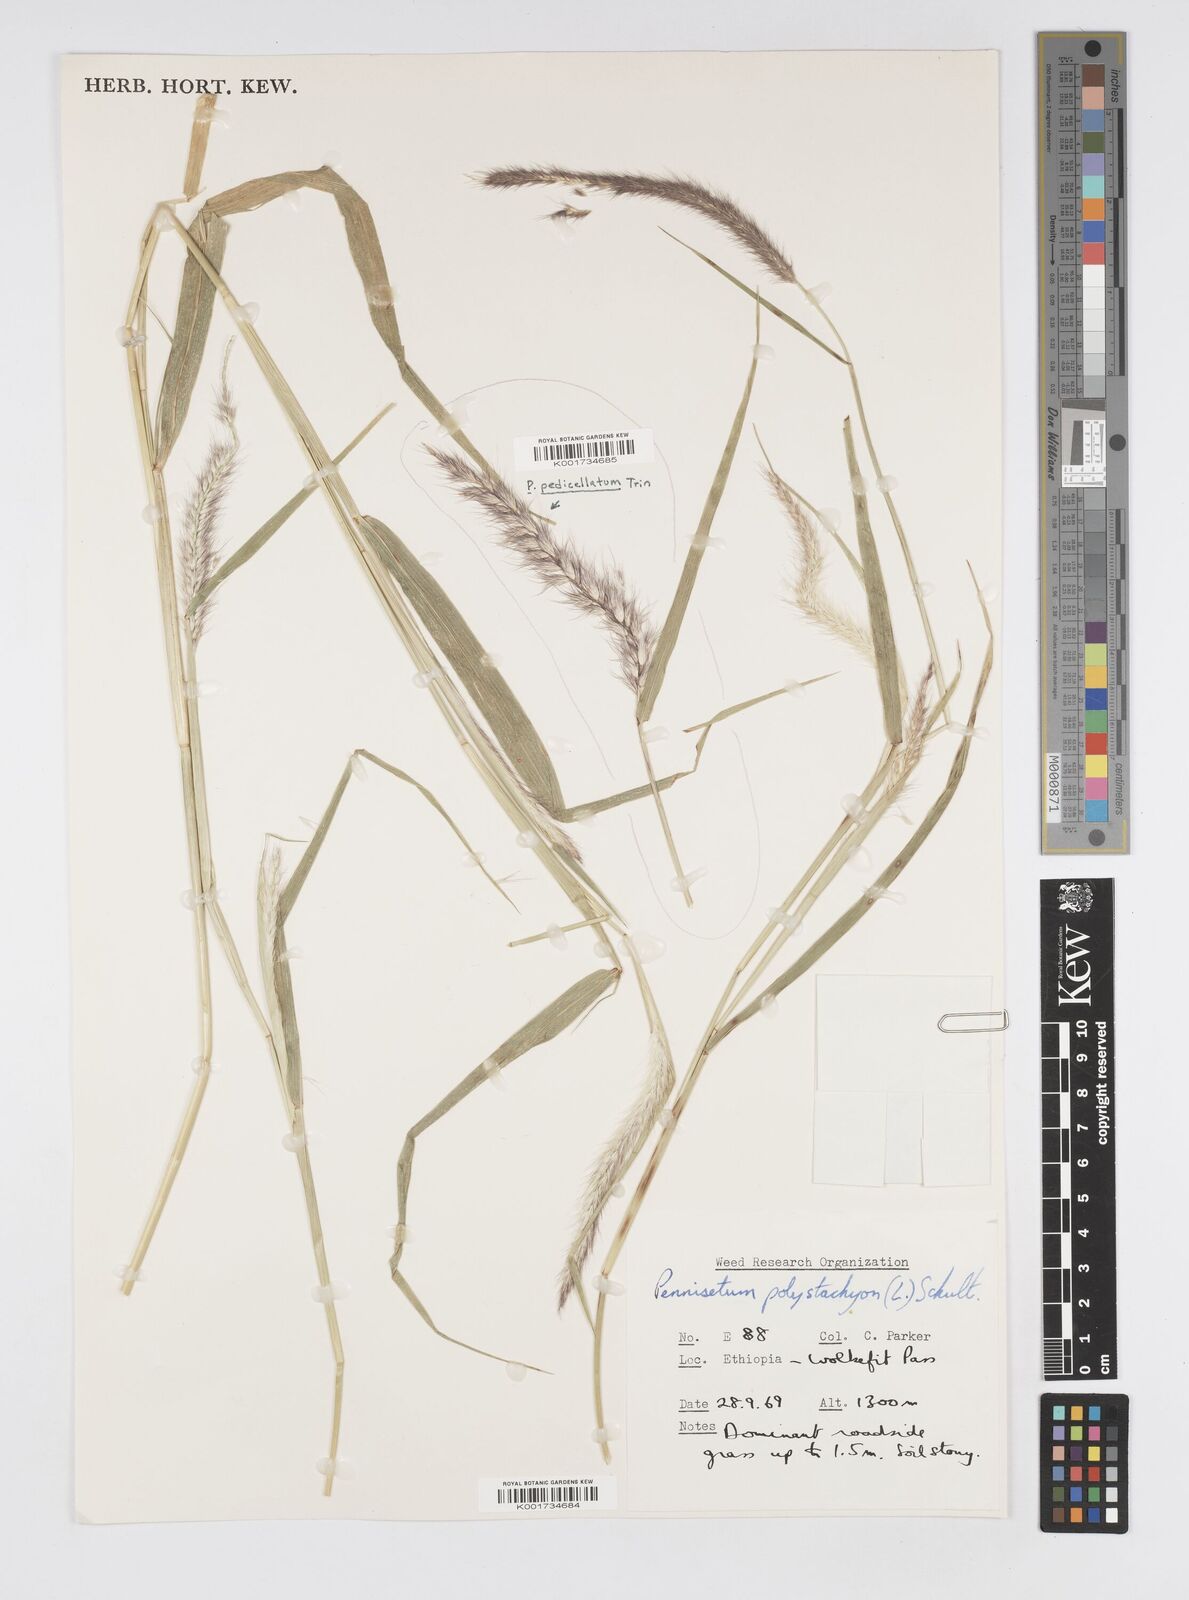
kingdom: Plantae
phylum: Tracheophyta
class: Liliopsida
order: Poales
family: Poaceae
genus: Setaria
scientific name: Setaria parviflora
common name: Knotroot bristle-grass
